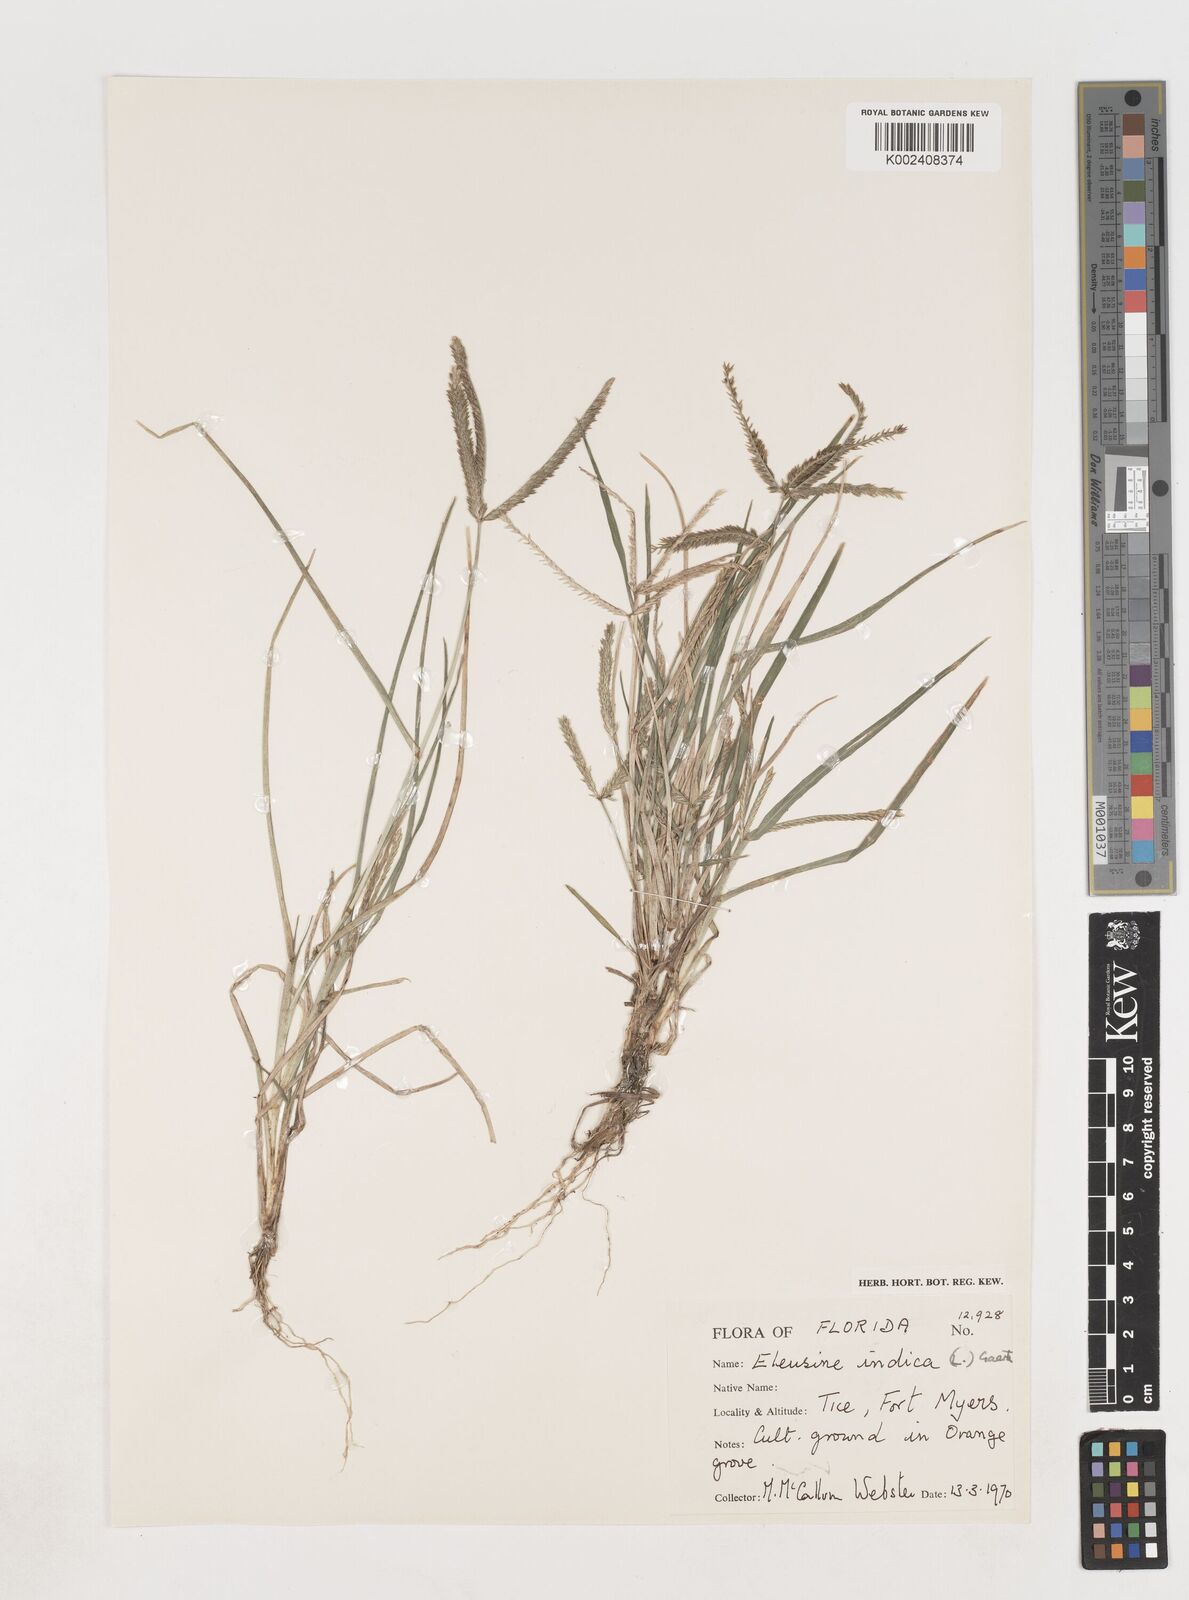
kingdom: Plantae
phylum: Tracheophyta
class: Liliopsida
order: Poales
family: Poaceae
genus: Eleusine
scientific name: Eleusine indica
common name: Yard-grass
